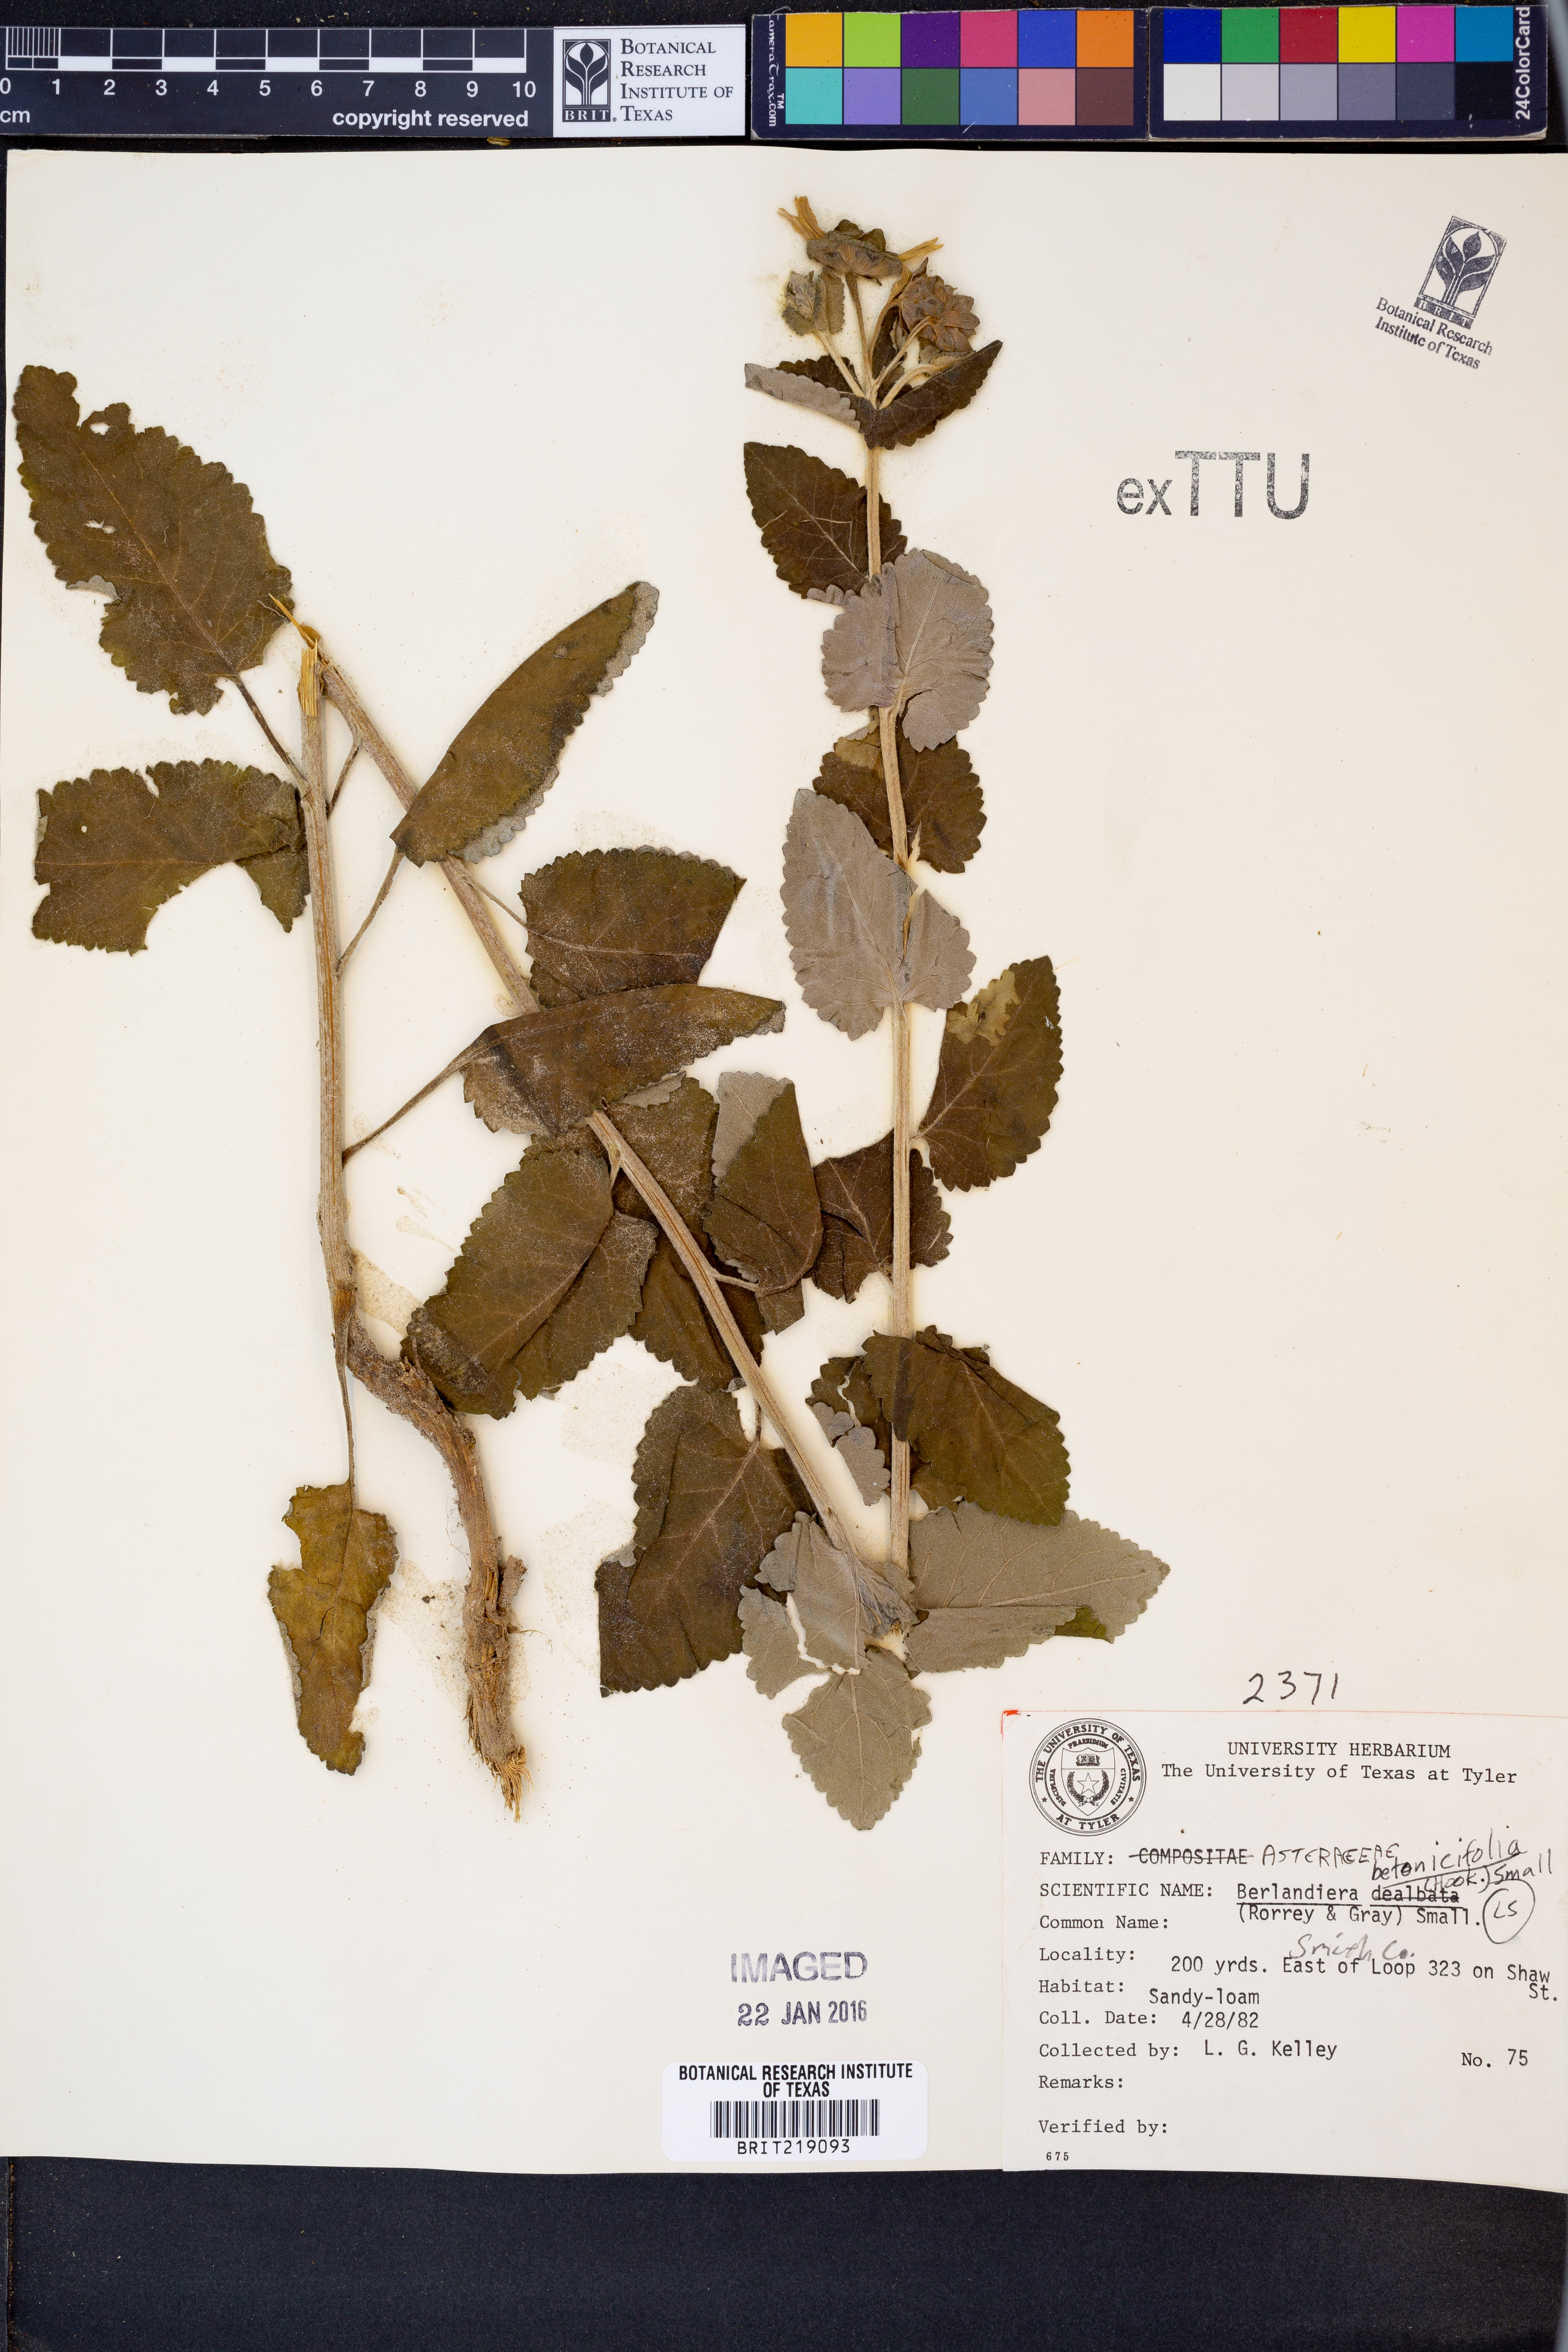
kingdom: Plantae
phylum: Tracheophyta
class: Magnoliopsida
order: Asterales
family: Asteraceae
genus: Berlandiera
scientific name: Berlandiera betonicifolia
